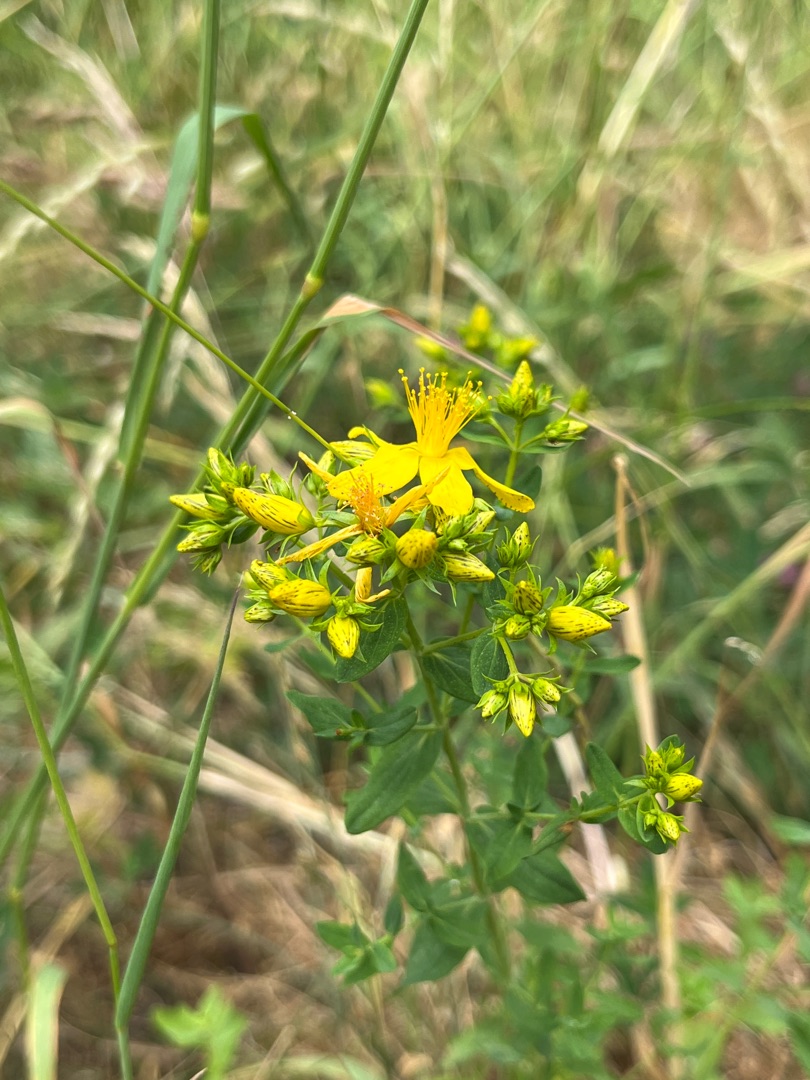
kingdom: Plantae
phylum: Tracheophyta
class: Magnoliopsida
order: Malpighiales
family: Hypericaceae
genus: Hypericum
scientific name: Hypericum perforatum
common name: Prikbladet perikon
